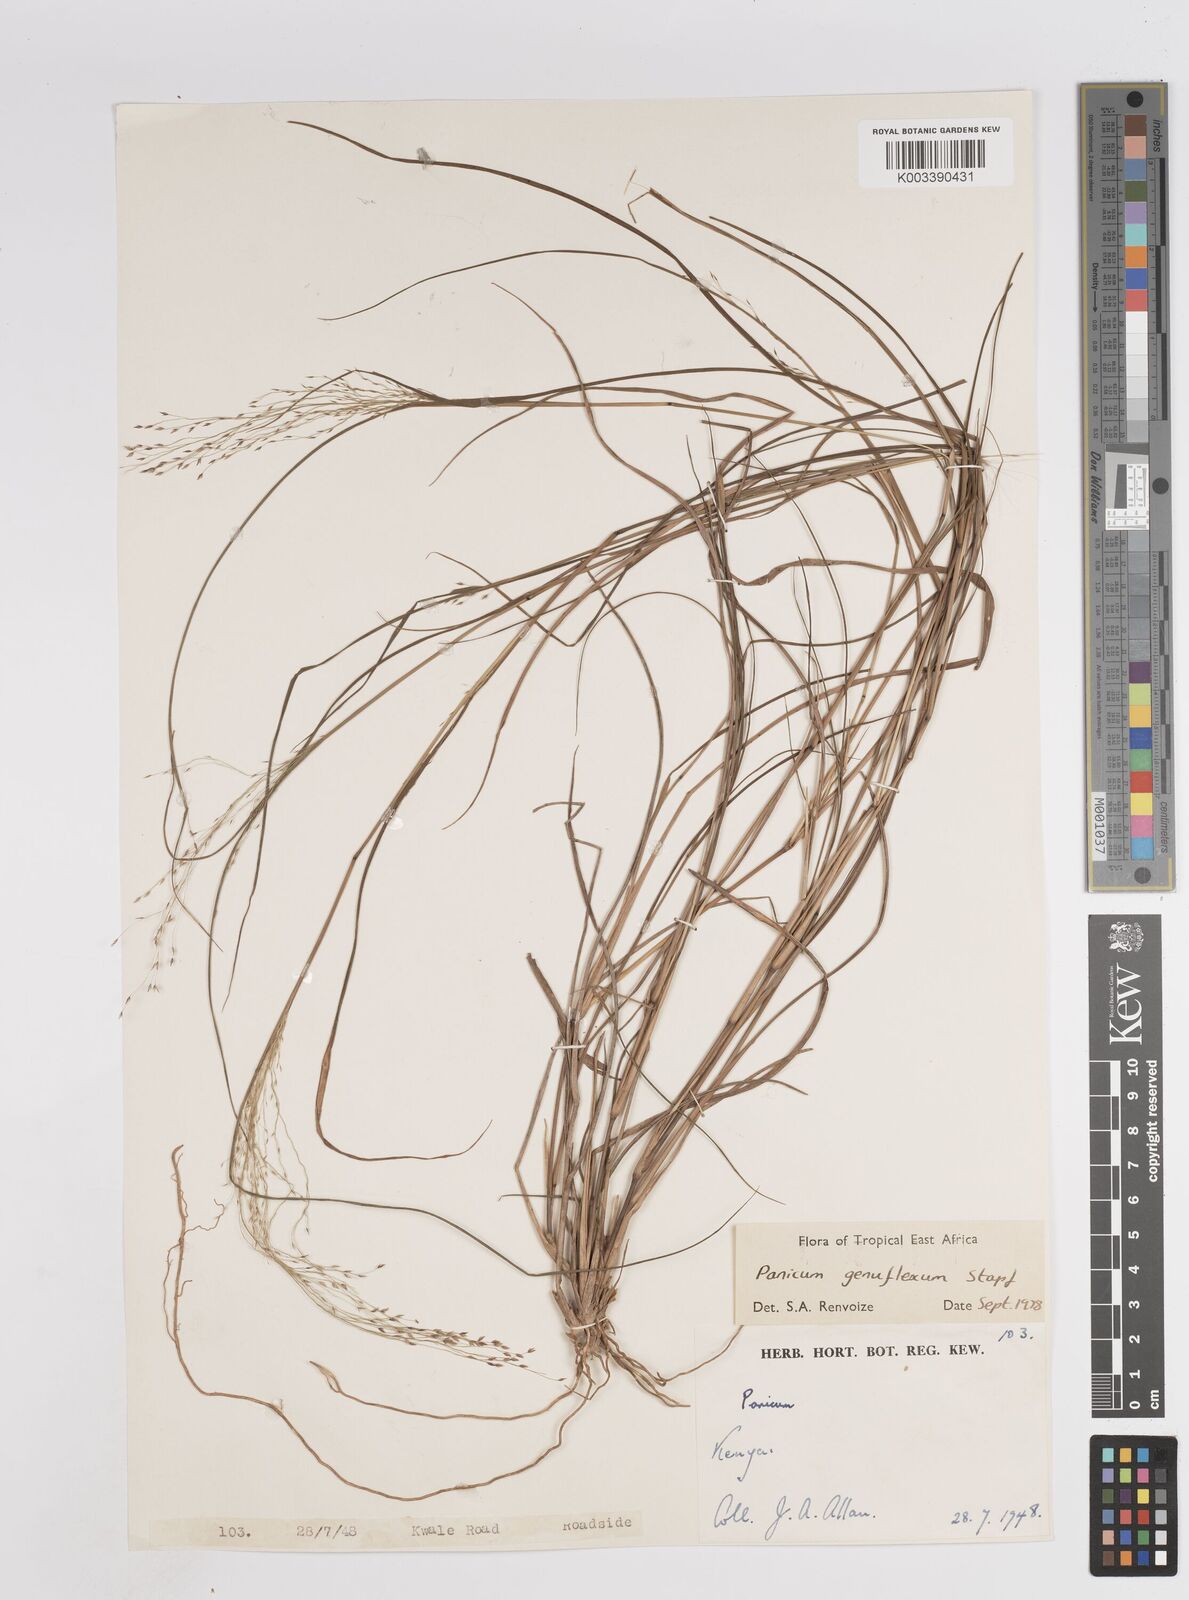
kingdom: Plantae
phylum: Tracheophyta
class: Liliopsida
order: Poales
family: Poaceae
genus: Panicum
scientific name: Panicum genuflexum
